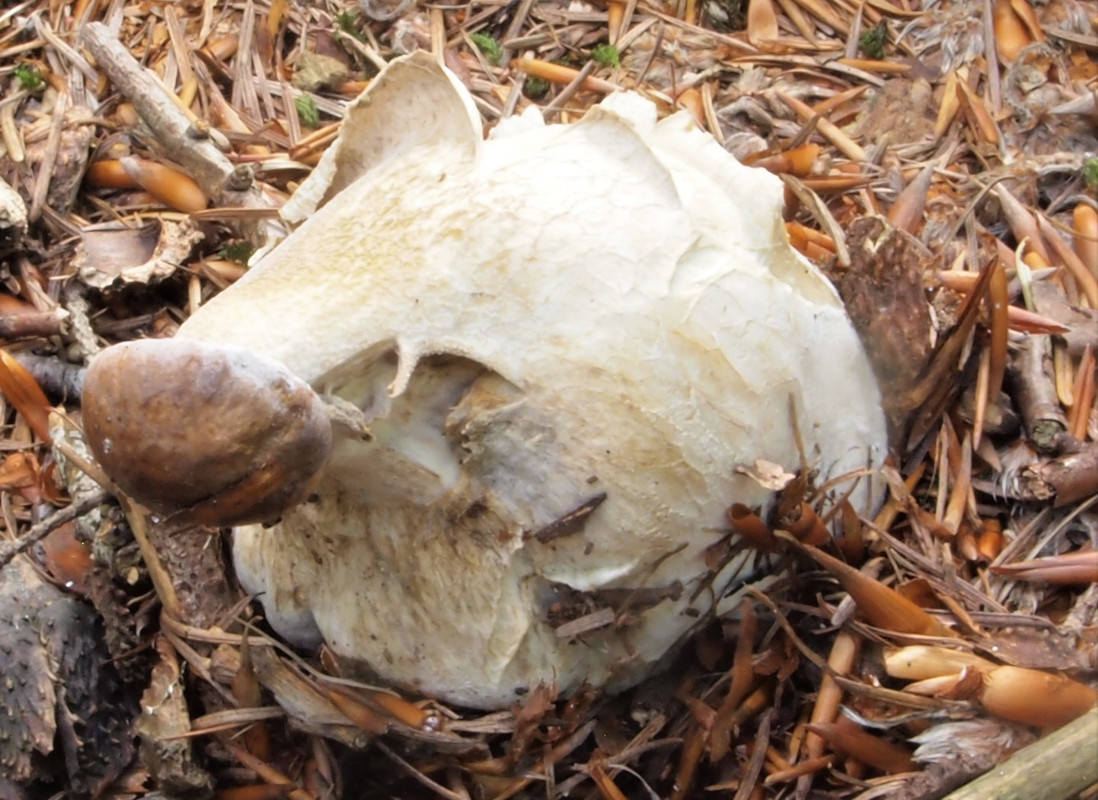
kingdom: Fungi
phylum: Ascomycota
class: Sordariomycetes
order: Hypocreales
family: Hypocreaceae
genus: Hypomyces
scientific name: Hypomyces chrysospermus
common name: gulskimmel-snylteskorpe
